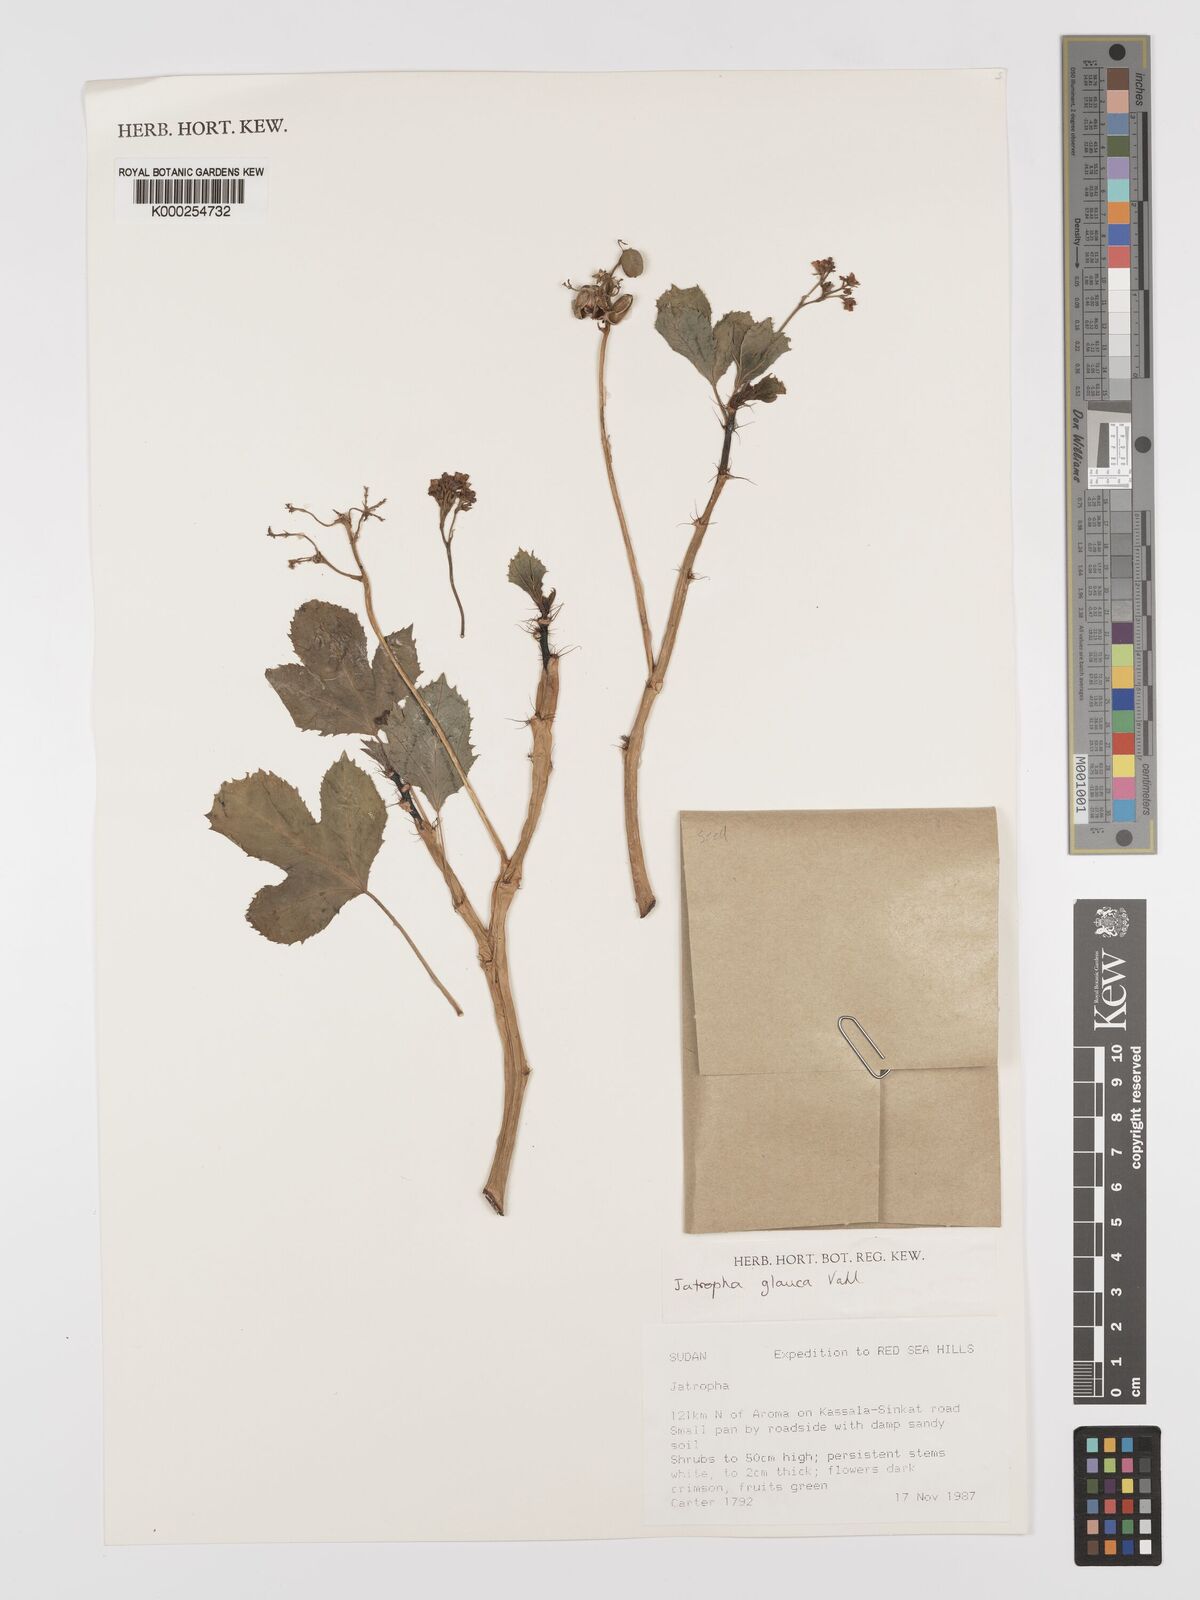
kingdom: Plantae
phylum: Tracheophyta
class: Magnoliopsida
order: Malpighiales
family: Euphorbiaceae
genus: Jatropha
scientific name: Jatropha glauca
